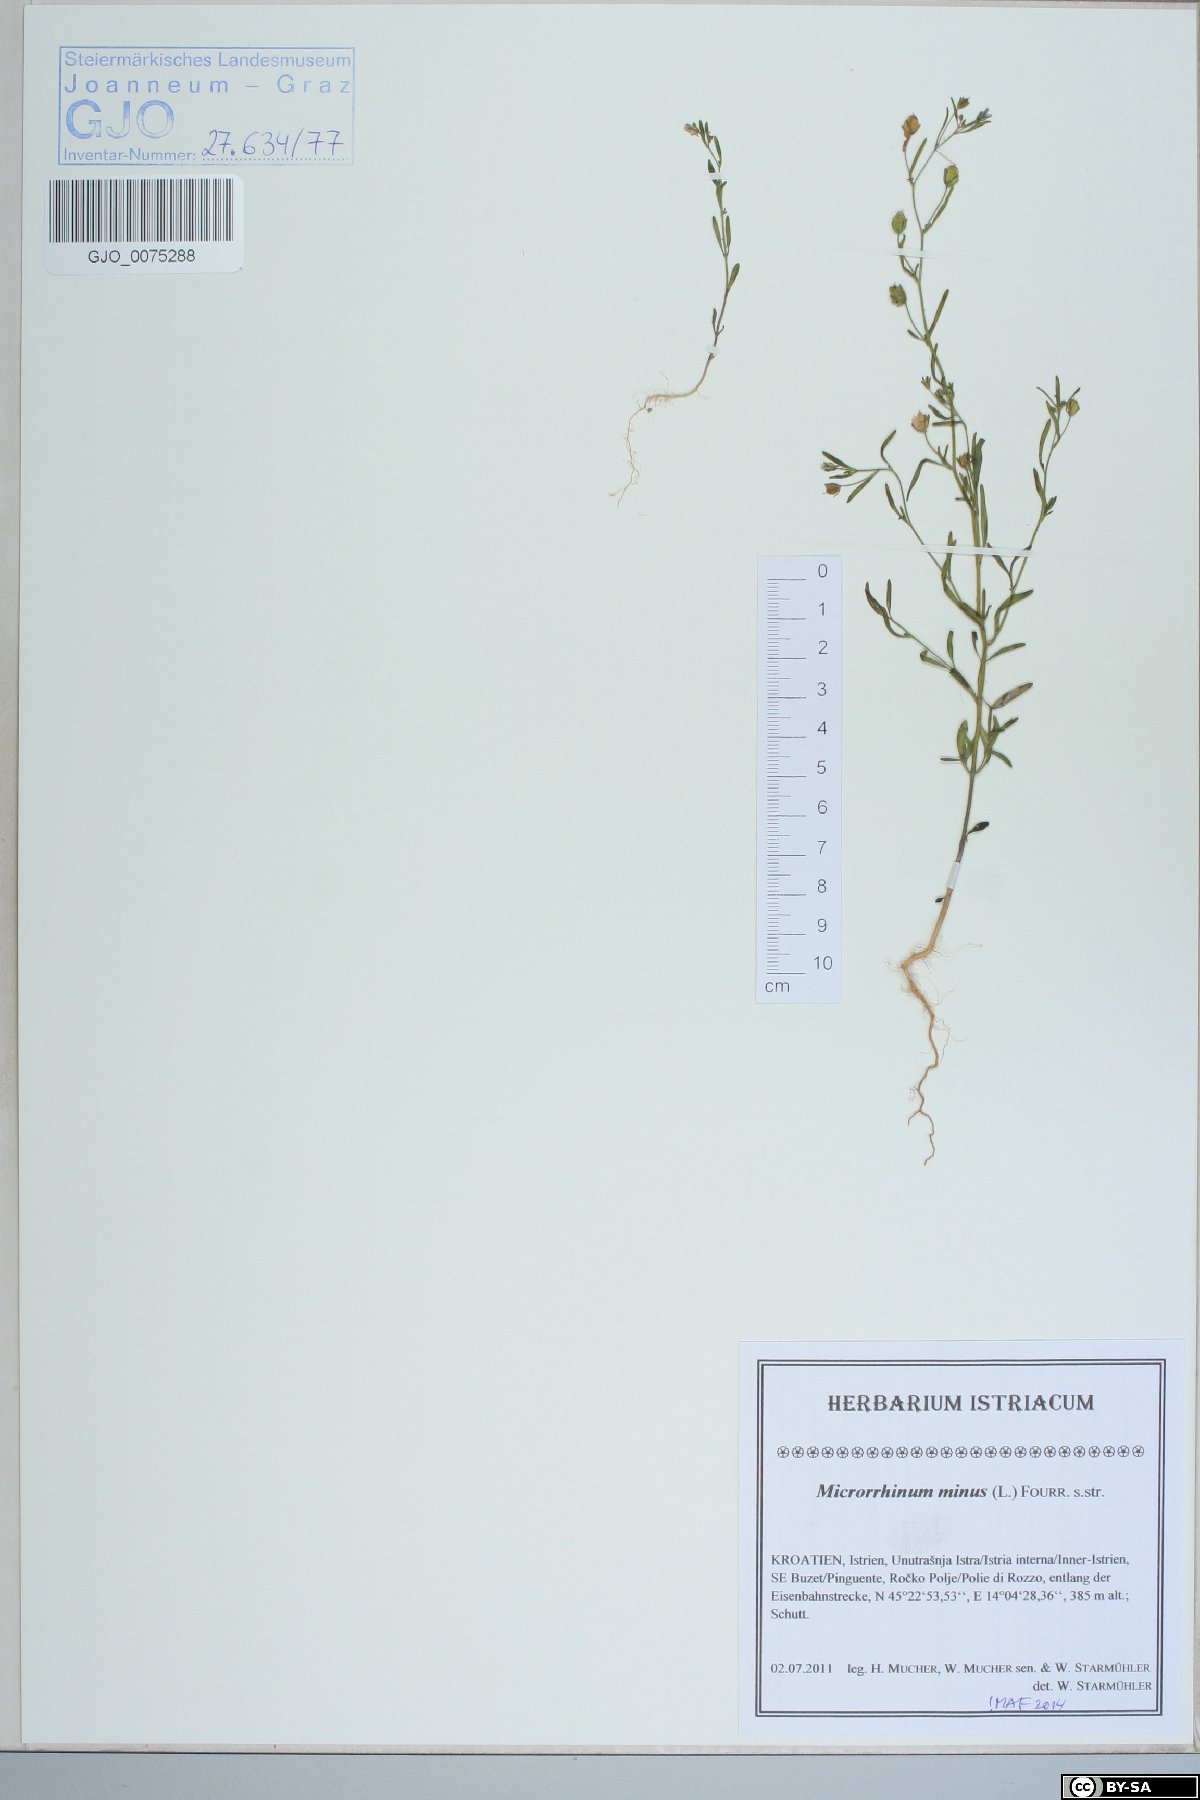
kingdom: Plantae
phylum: Tracheophyta
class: Magnoliopsida
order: Lamiales
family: Plantaginaceae
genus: Chaenorhinum
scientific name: Chaenorhinum minus
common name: Dwarf snapdragon
